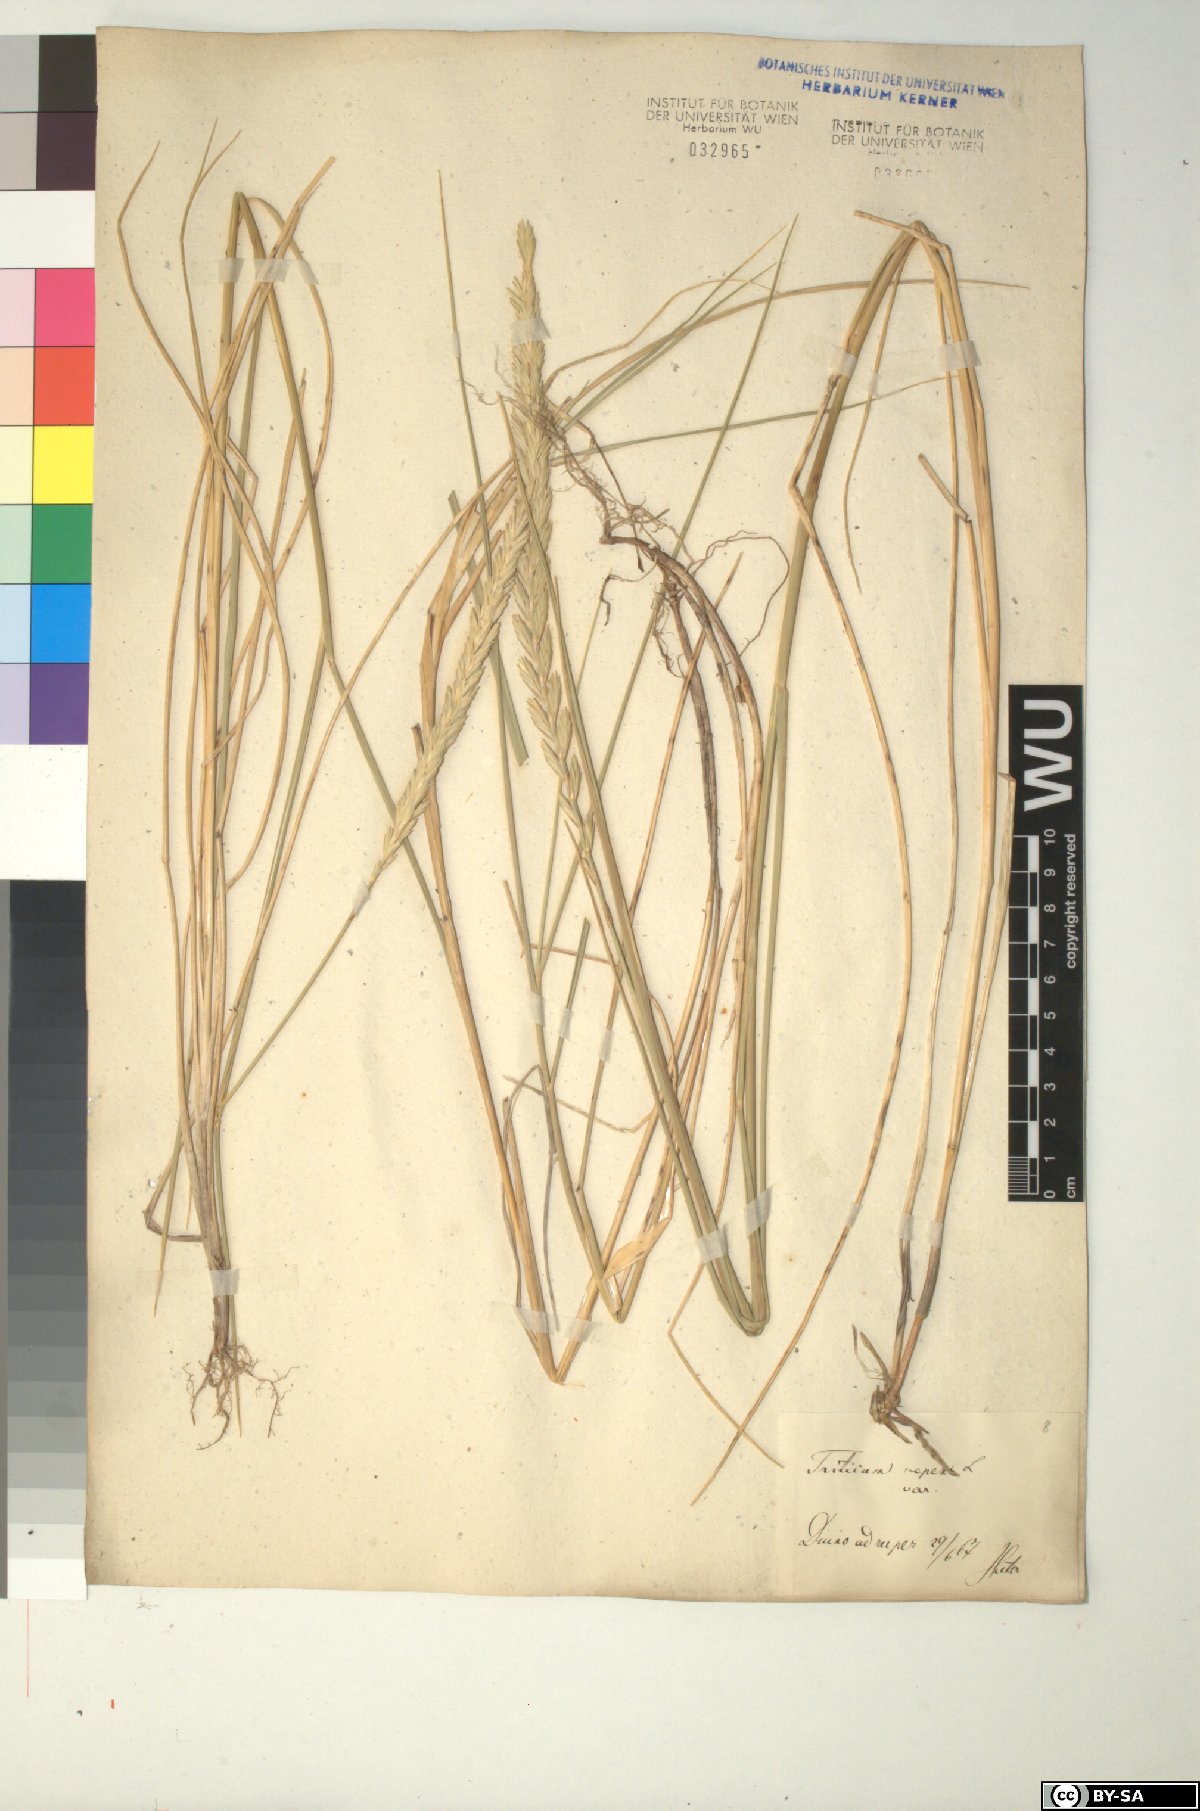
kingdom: Plantae
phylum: Tracheophyta
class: Liliopsida
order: Poales
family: Poaceae
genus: Elymus
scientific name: Elymus repens
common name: Quackgrass
